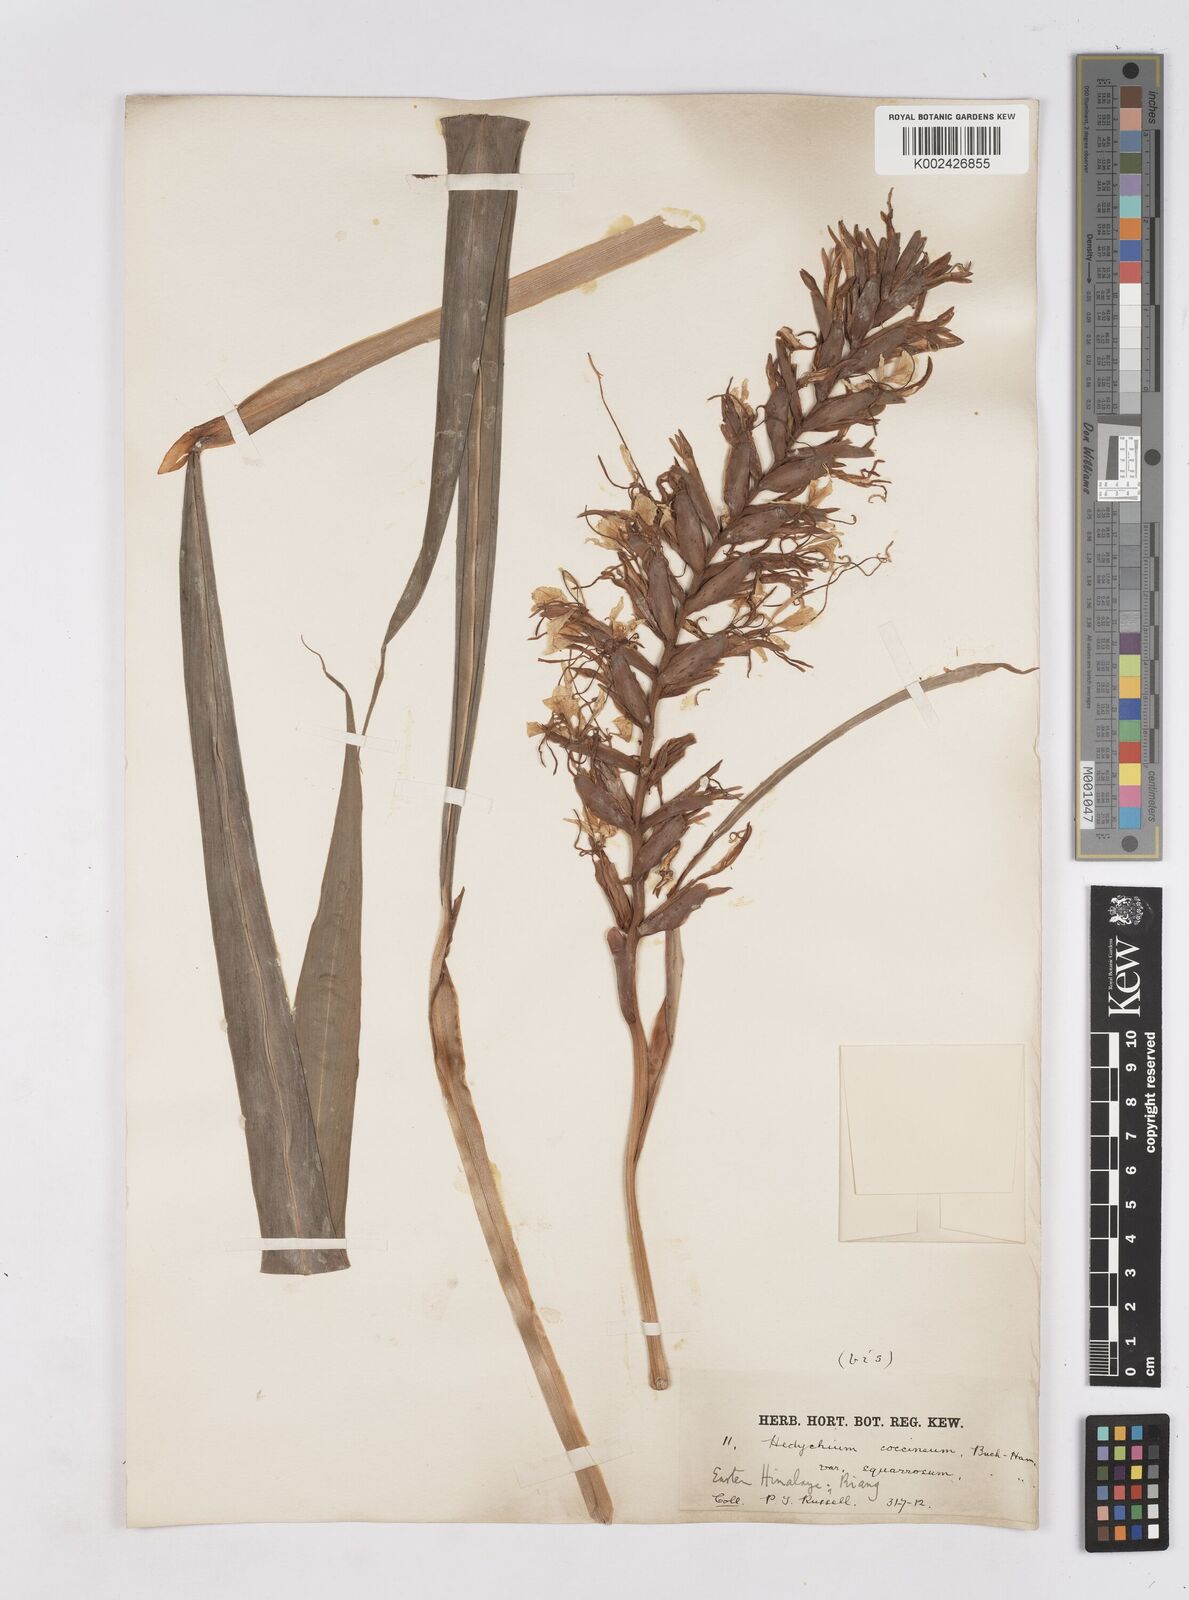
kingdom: Plantae
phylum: Tracheophyta
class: Liliopsida
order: Zingiberales
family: Zingiberaceae
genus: Hedychium
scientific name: Hedychium coccineum
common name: Red ginger-lily
